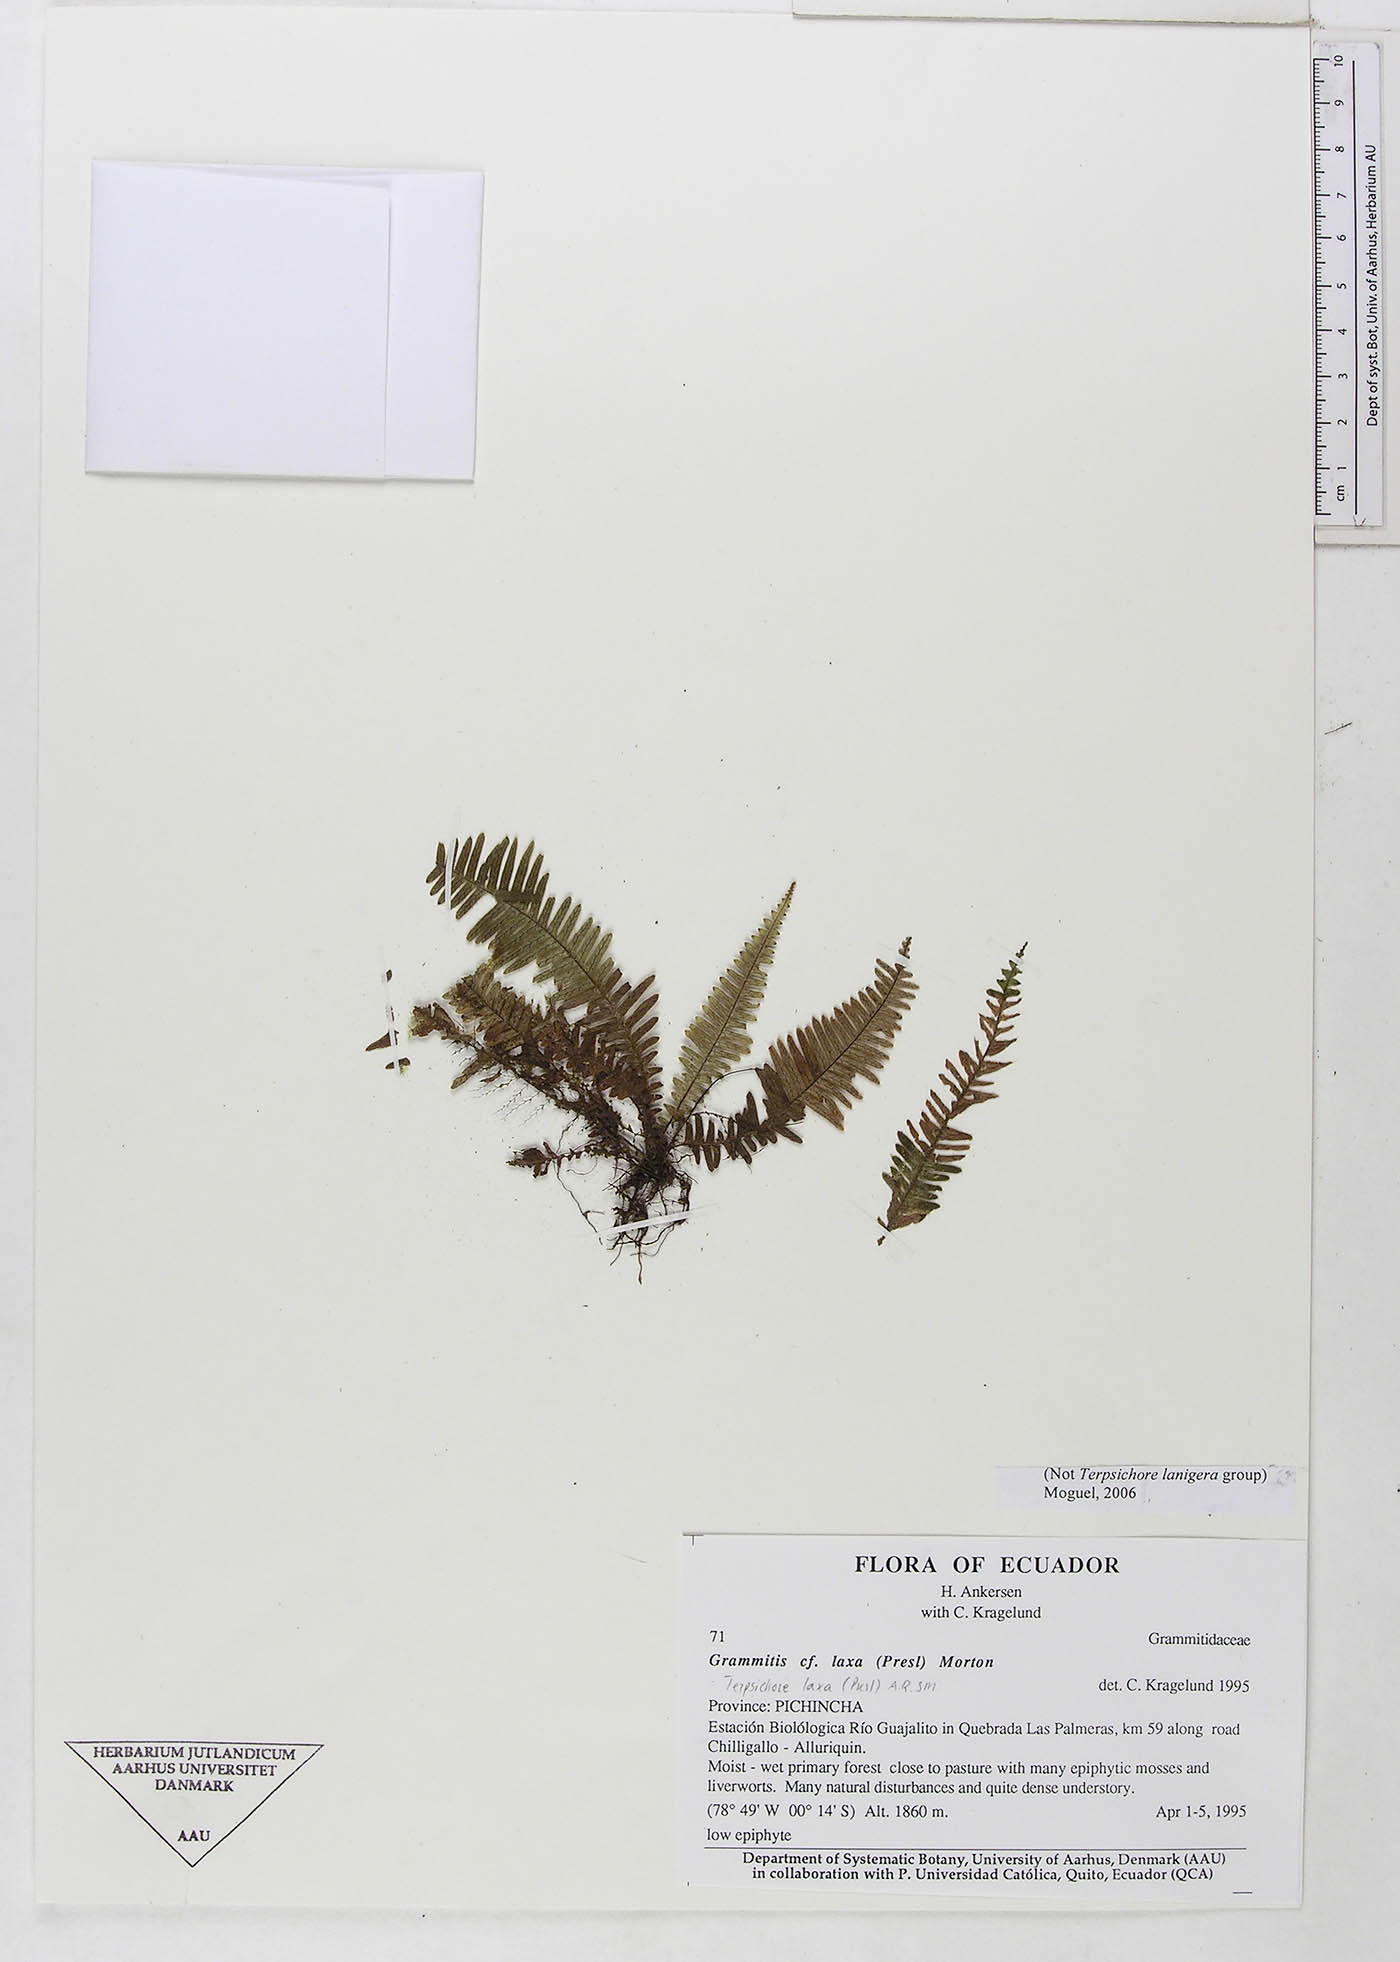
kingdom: Plantae
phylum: Tracheophyta
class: Polypodiopsida
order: Polypodiales
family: Polypodiaceae
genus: Alansmia
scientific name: Alansmia laxa
